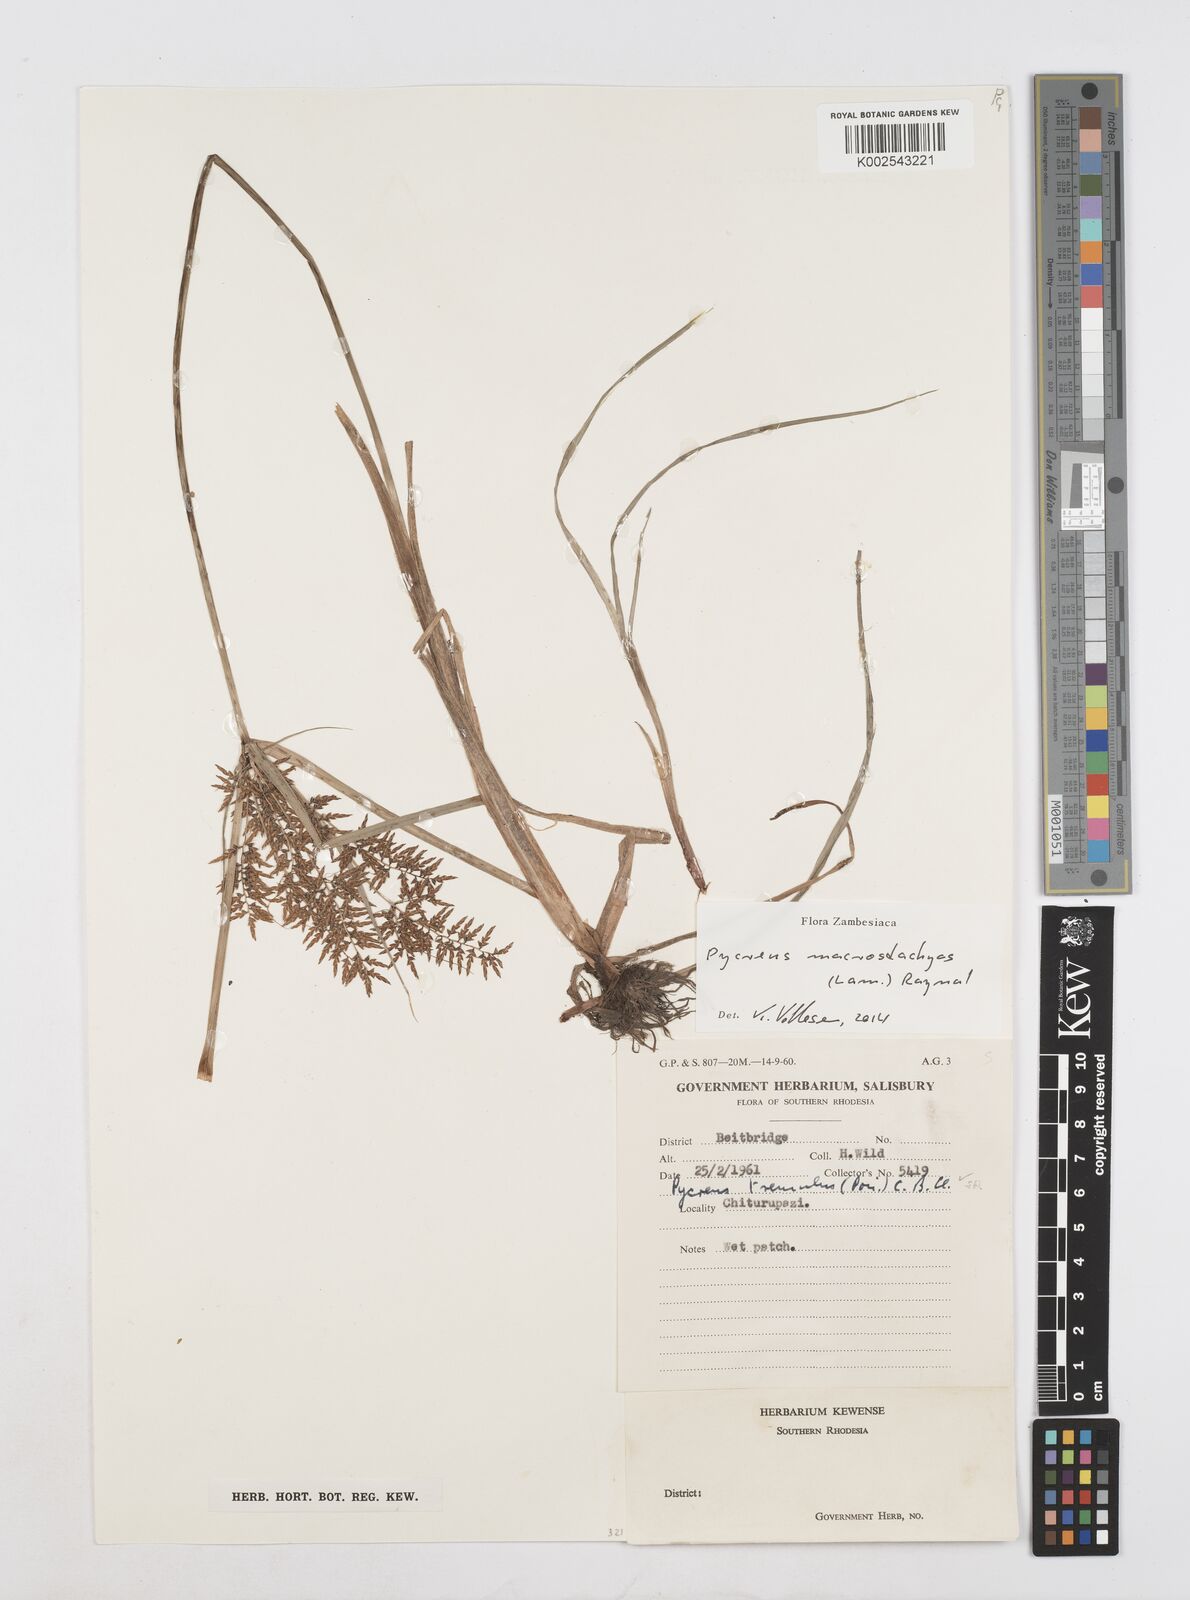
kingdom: Plantae
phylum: Tracheophyta
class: Liliopsida
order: Poales
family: Cyperaceae
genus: Cyperus
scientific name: Cyperus macrostachyos
